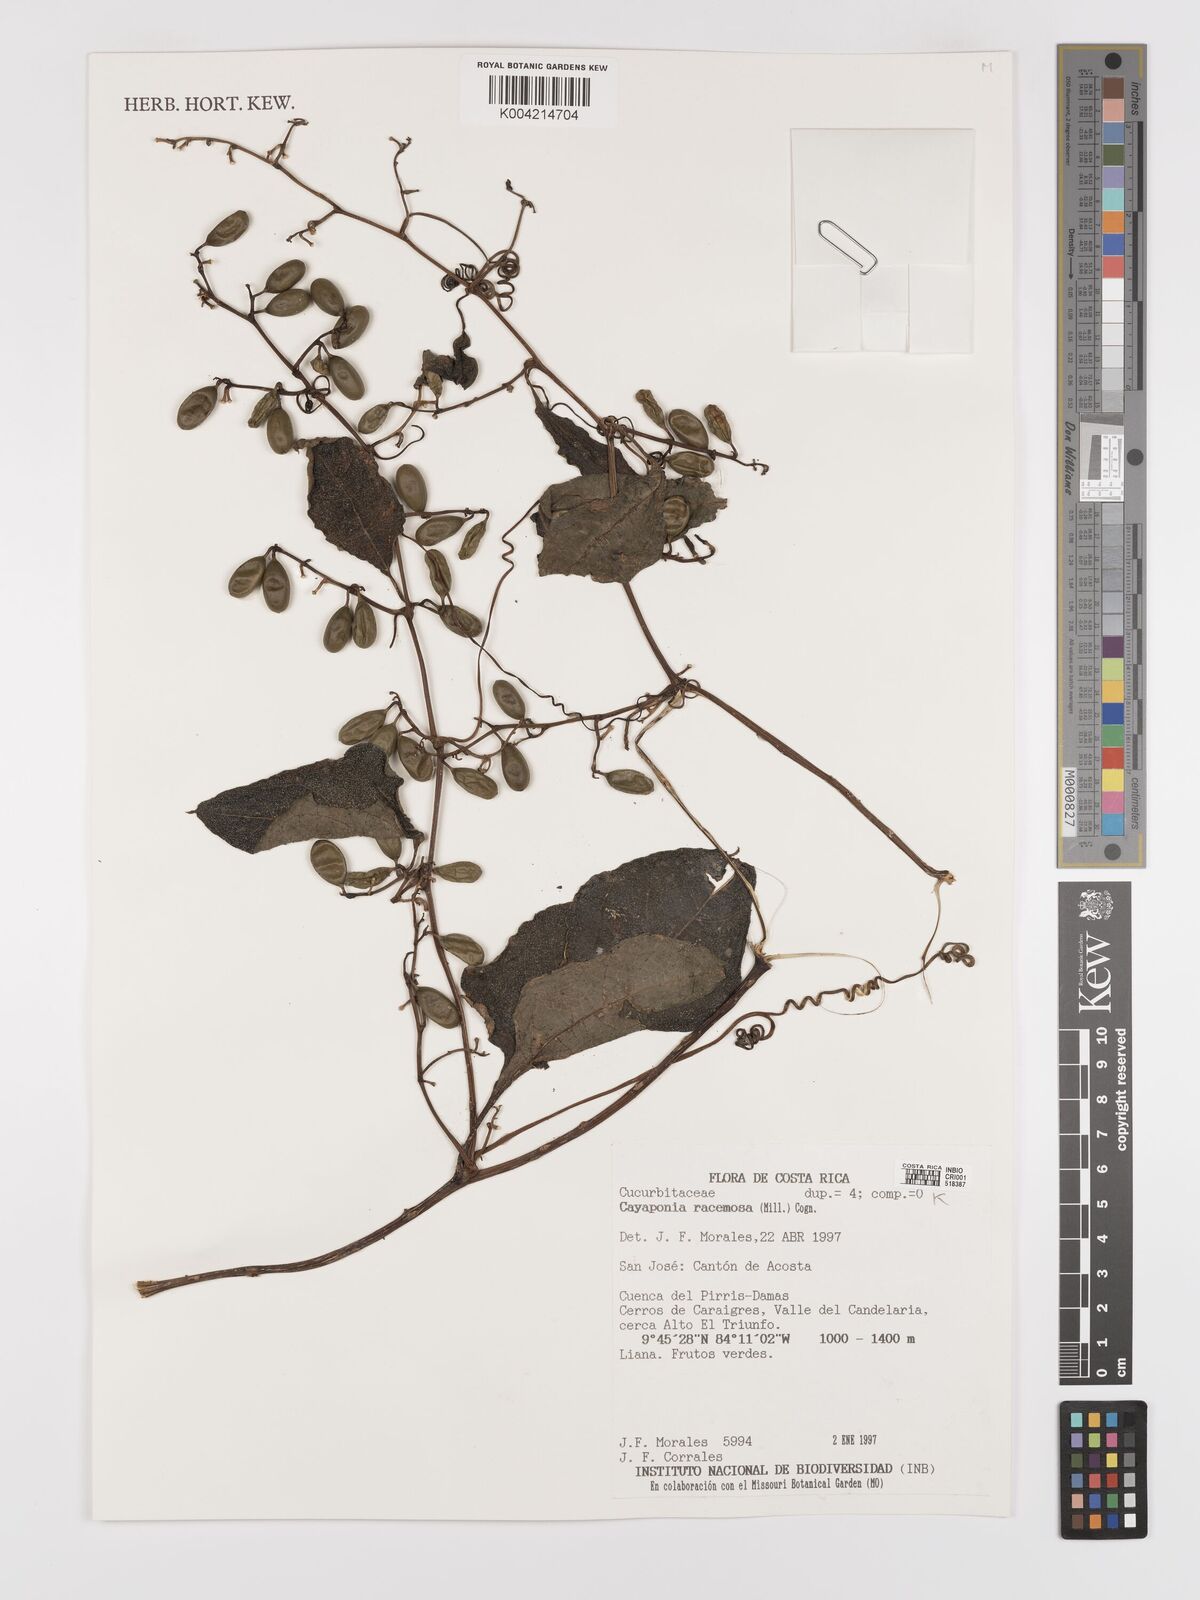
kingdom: Plantae
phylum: Tracheophyta
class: Magnoliopsida
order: Cucurbitales
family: Cucurbitaceae
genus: Cayaponia
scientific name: Cayaponia racemosa
